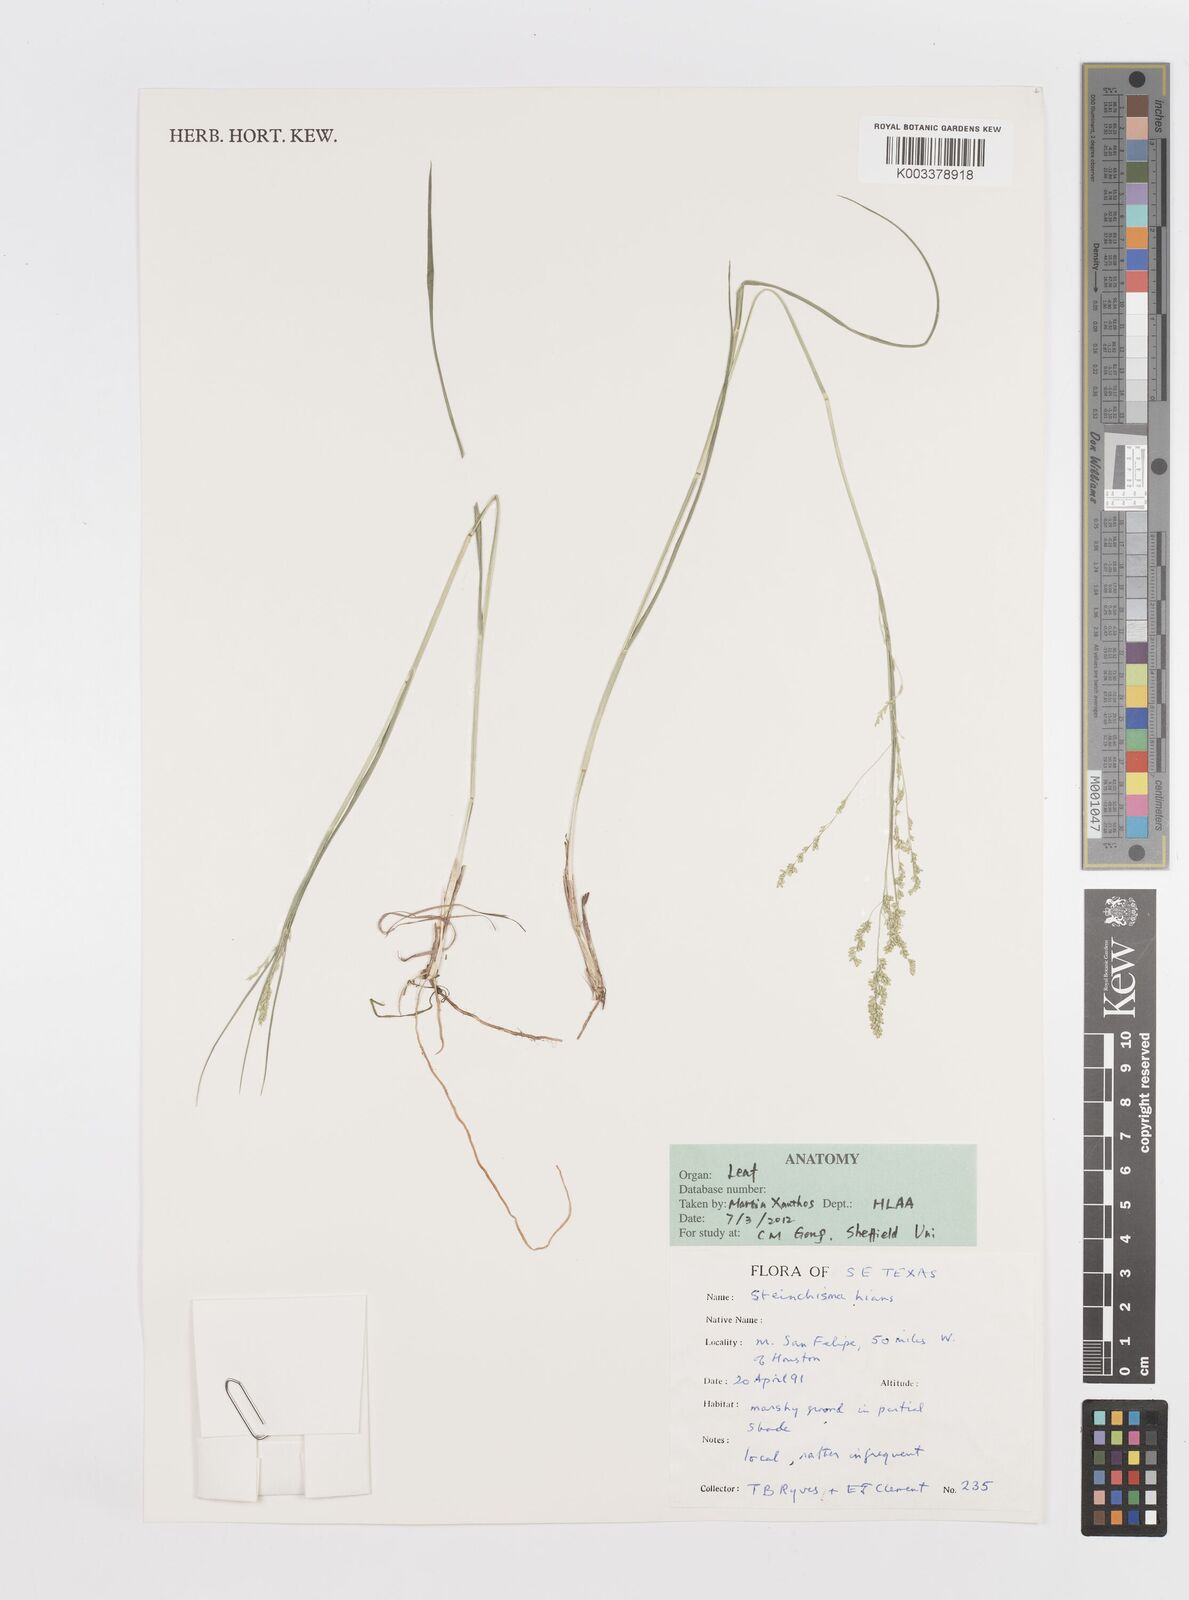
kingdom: Plantae
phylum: Tracheophyta
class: Liliopsida
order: Poales
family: Poaceae
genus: Steinchisma
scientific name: Steinchisma hians
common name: Gaping panic grass
